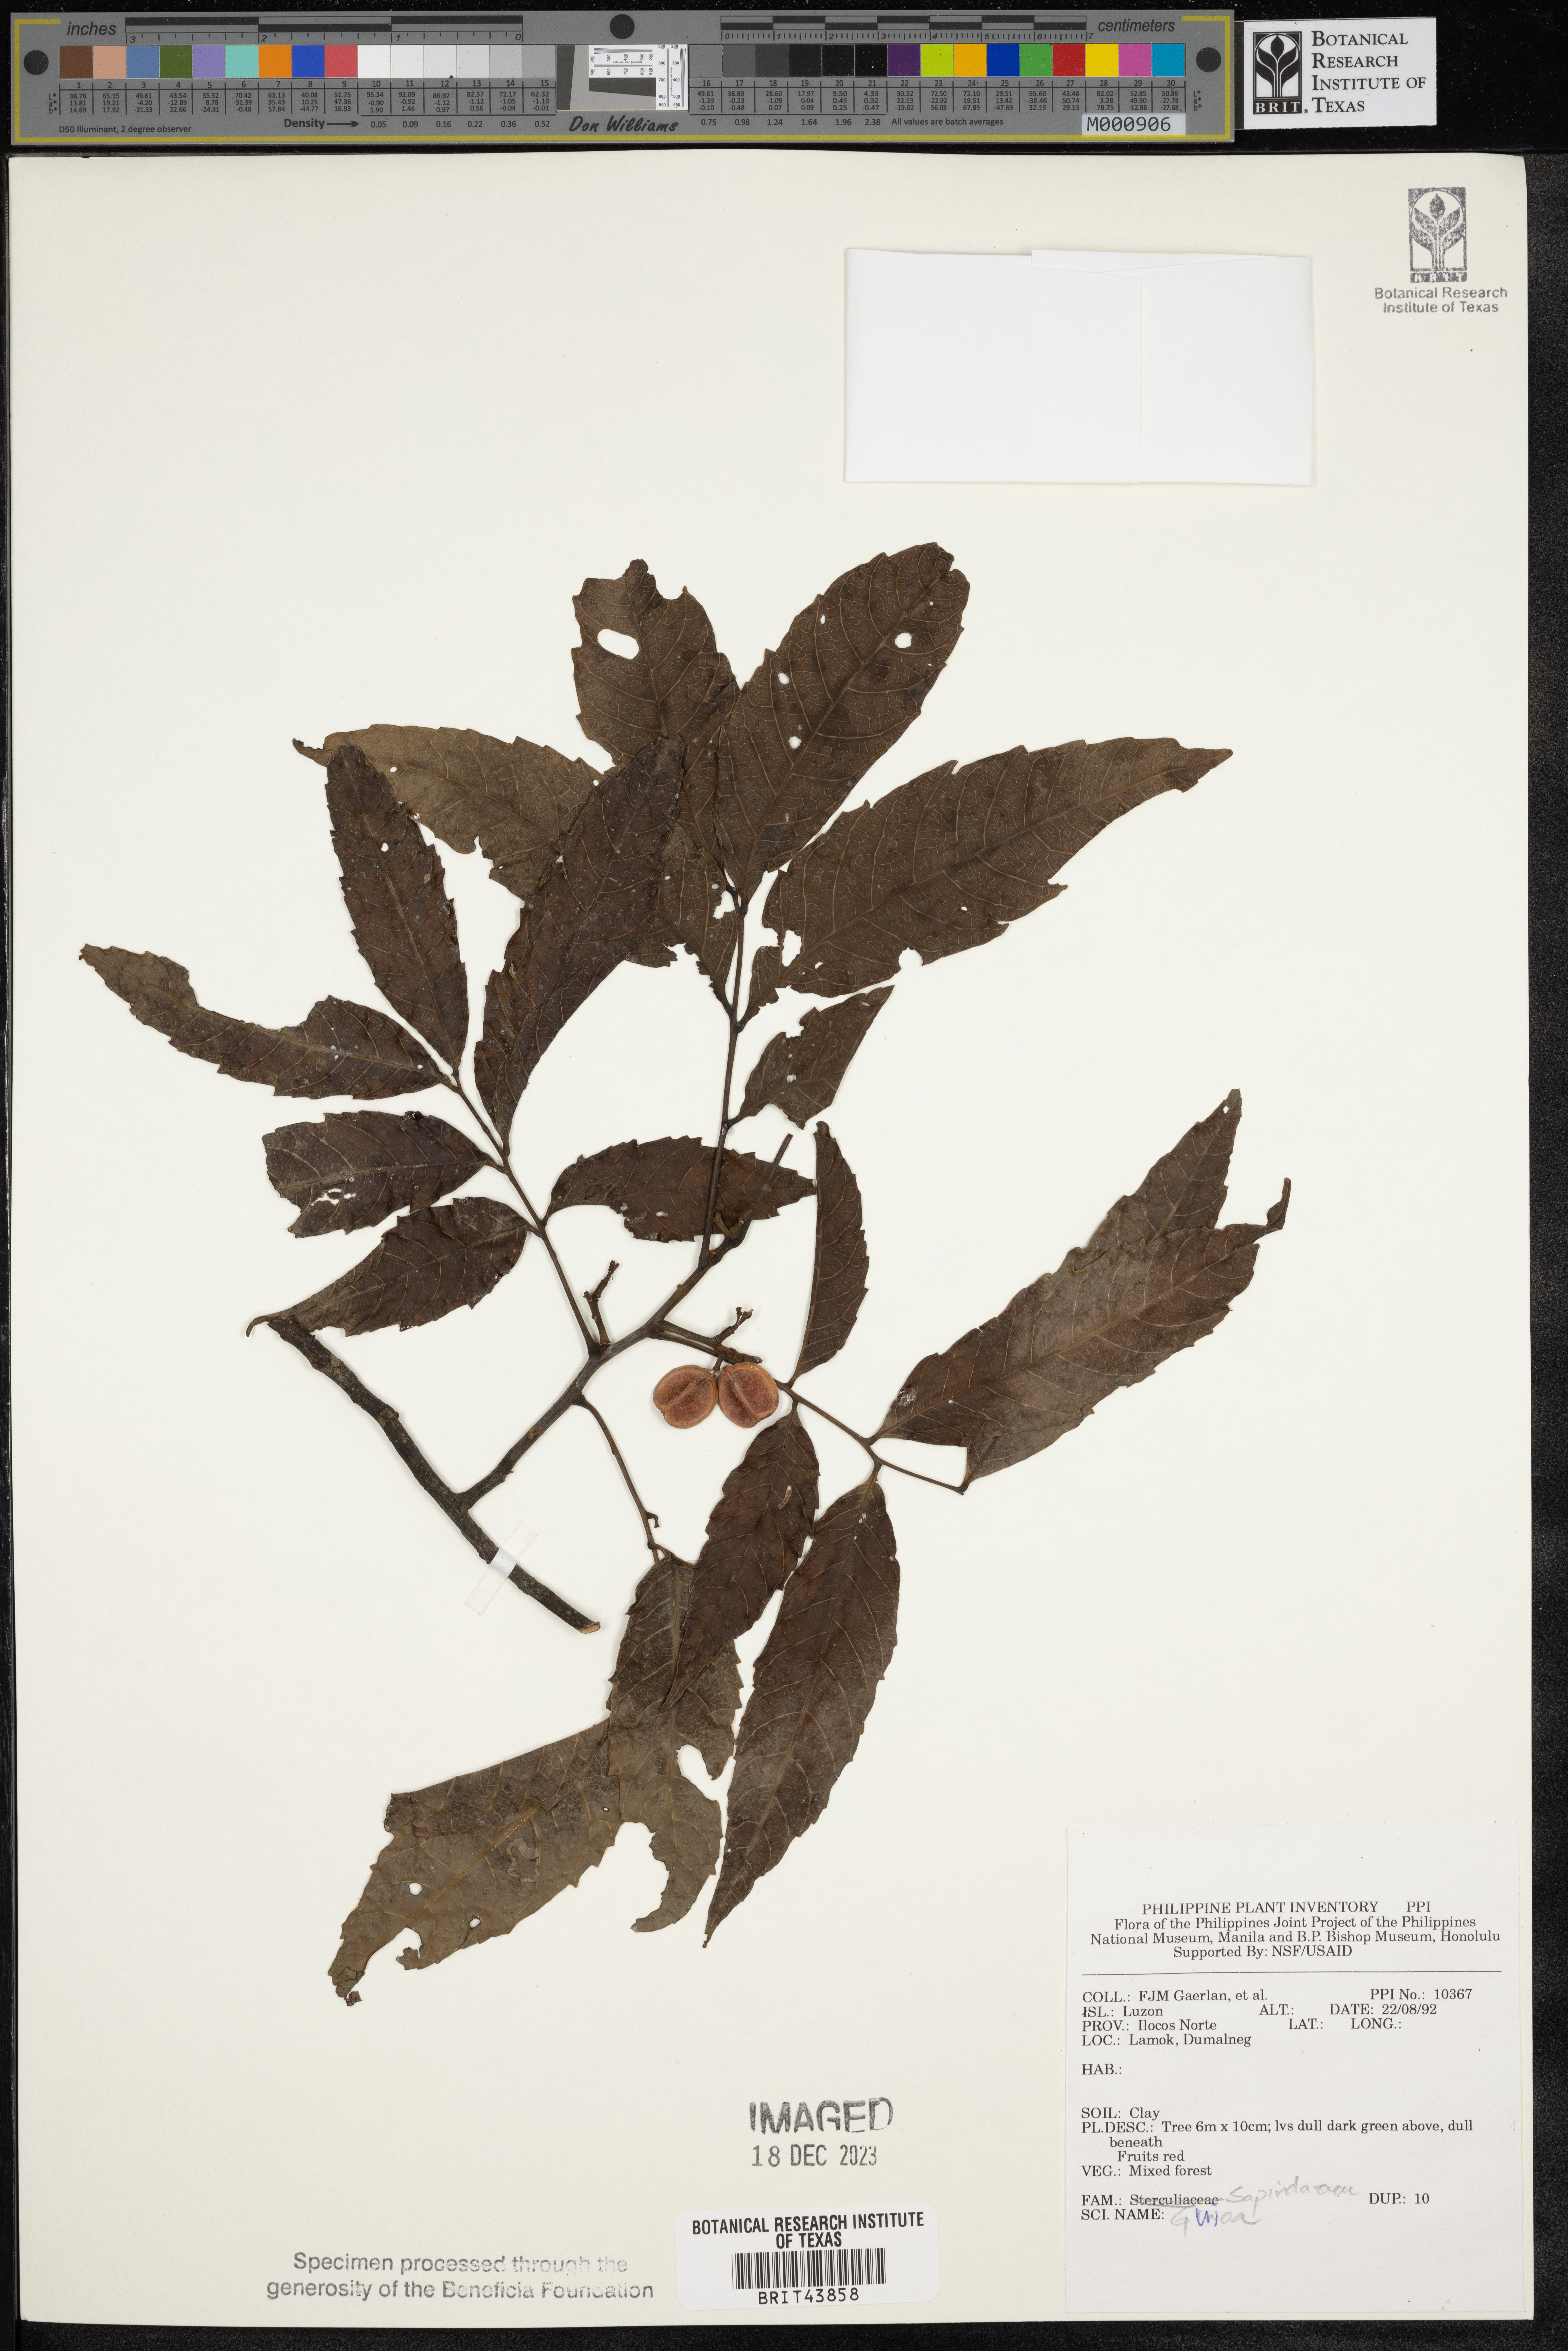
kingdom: Plantae
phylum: Tracheophyta
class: Magnoliopsida
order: Sapindales
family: Sapindaceae
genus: Guioa
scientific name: Guioa
